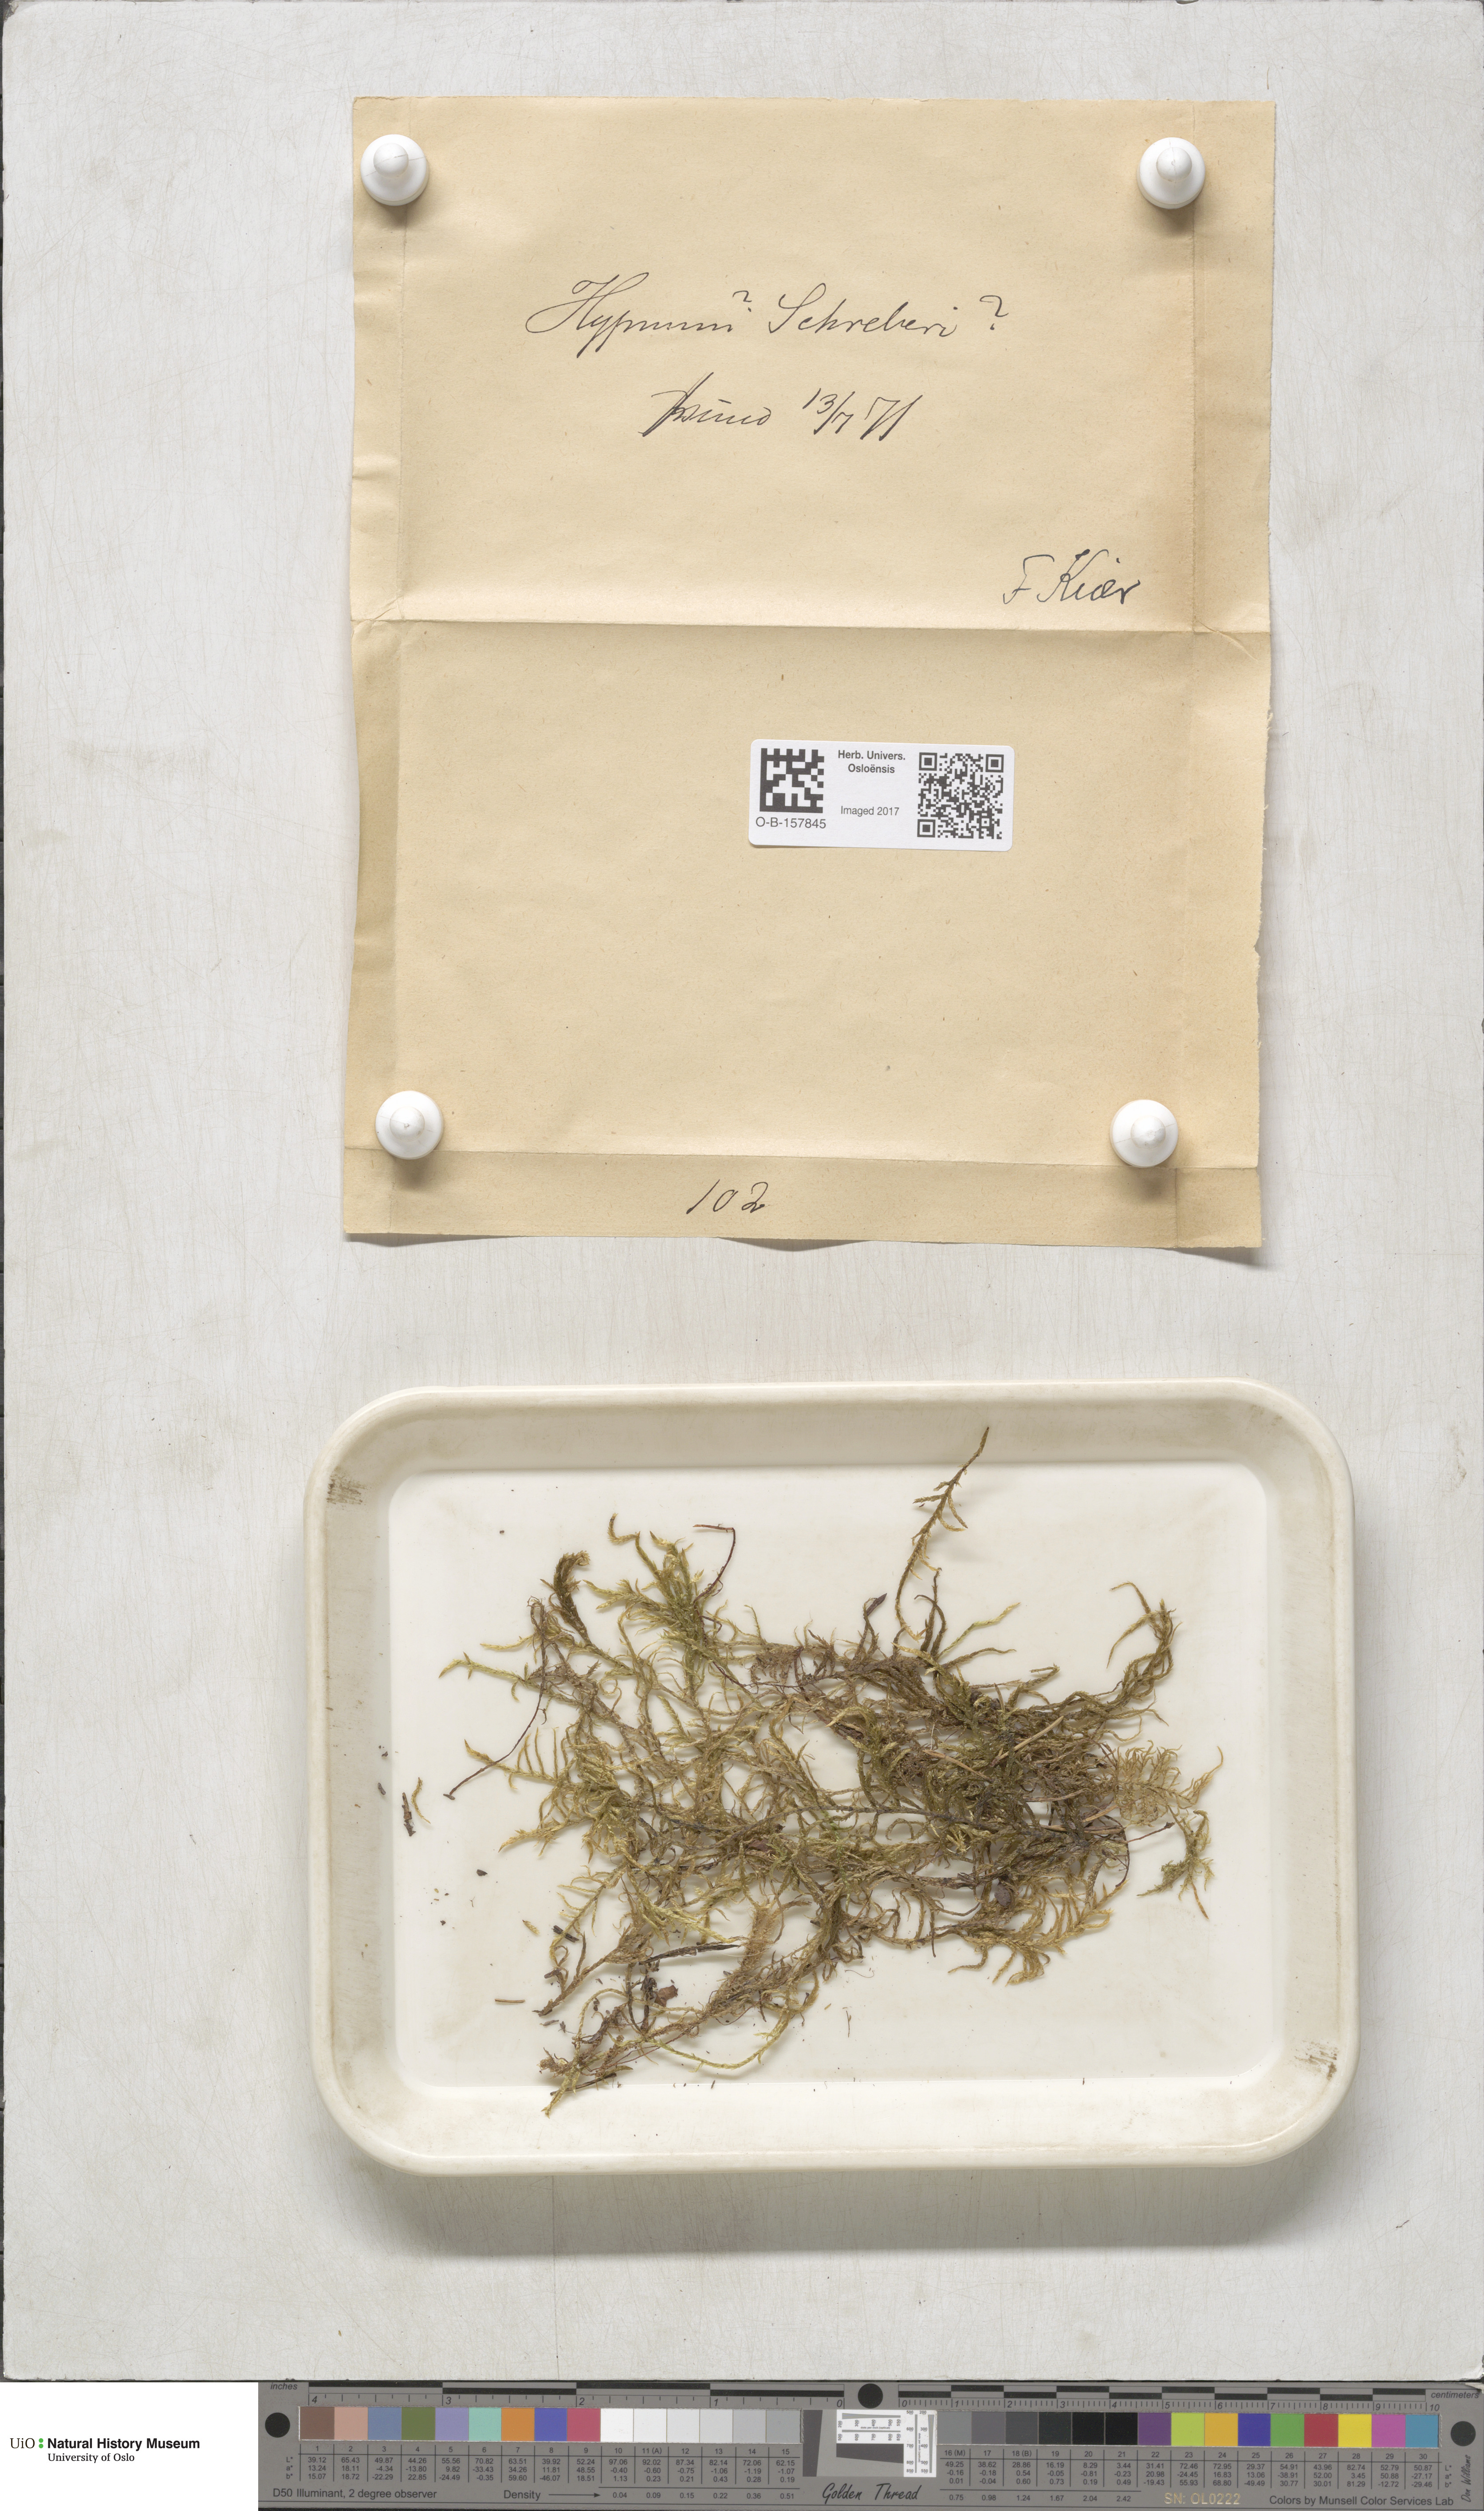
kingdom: Plantae
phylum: Bryophyta
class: Bryopsida
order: Hypnales
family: Hylocomiaceae
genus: Pleurozium
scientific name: Pleurozium schreberi
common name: Red-stemmed feather moss
